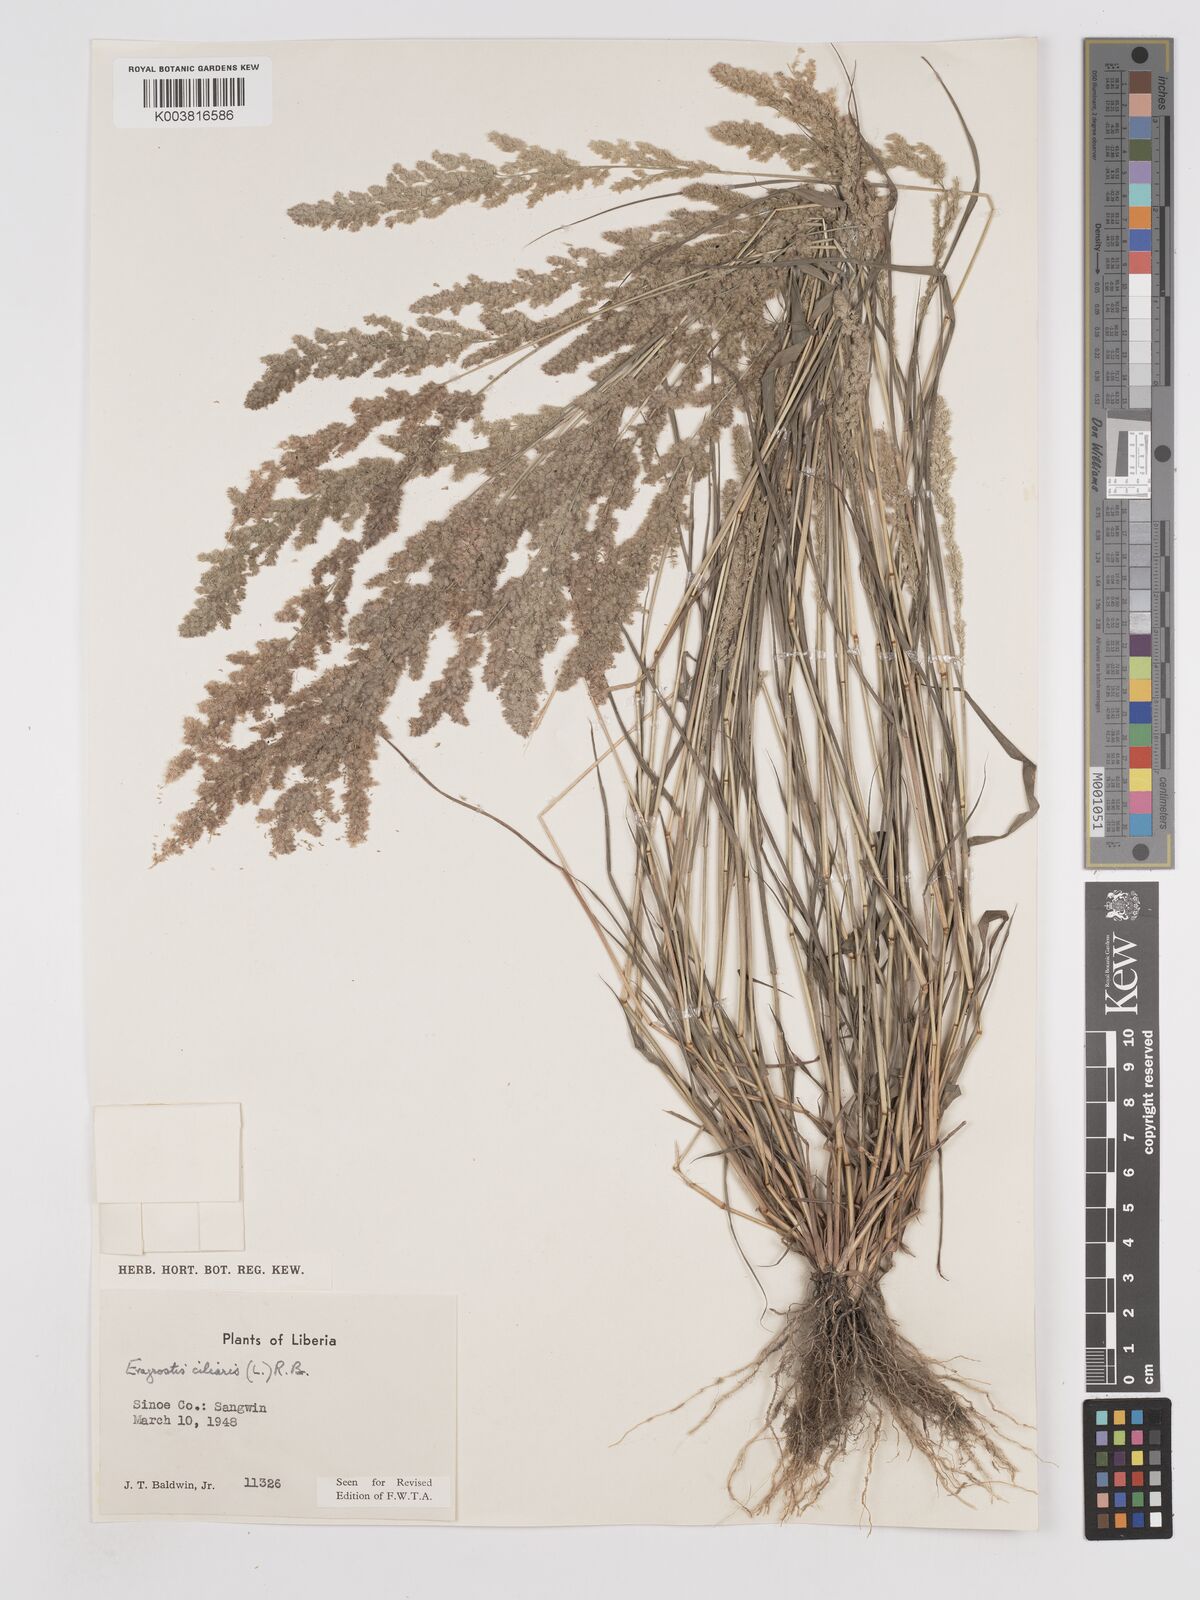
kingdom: Plantae
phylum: Tracheophyta
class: Liliopsida
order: Poales
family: Poaceae
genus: Eragrostis
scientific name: Eragrostis ciliaris
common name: Gophertail lovegrass
